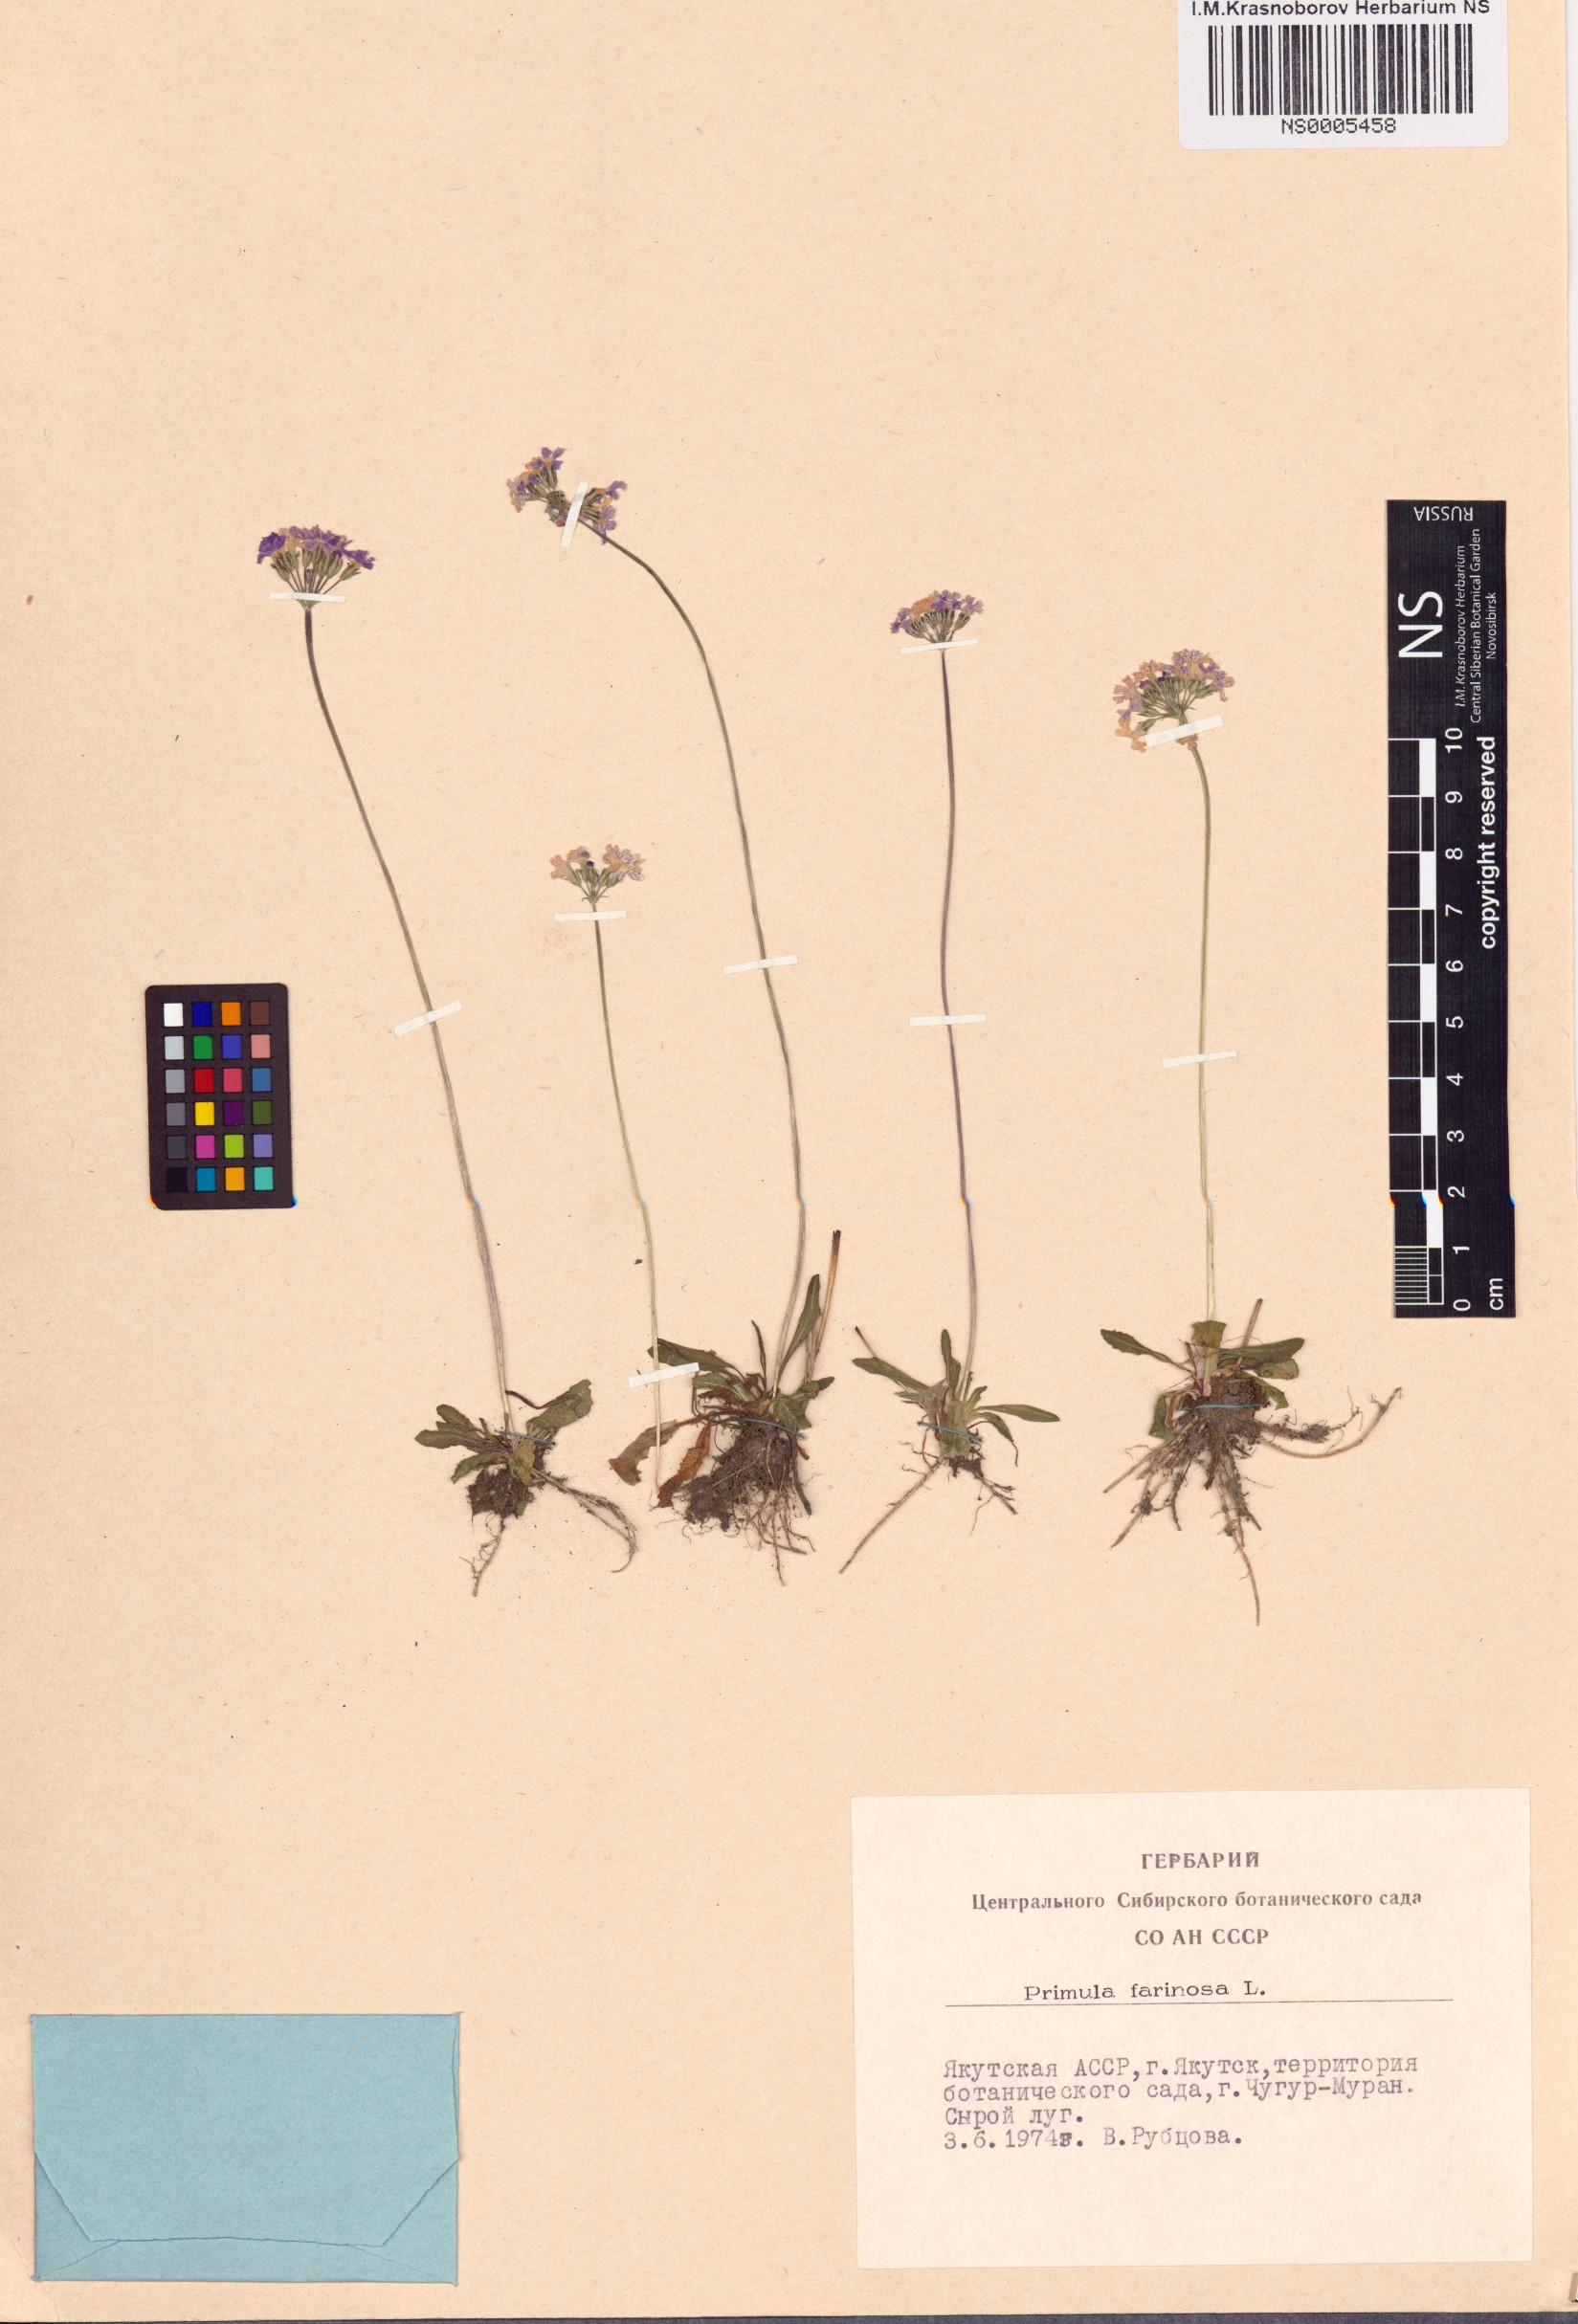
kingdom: Plantae
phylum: Tracheophyta
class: Magnoliopsida
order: Ericales
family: Primulaceae
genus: Primula
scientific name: Primula farinosa
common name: Bird's-eye primrose
